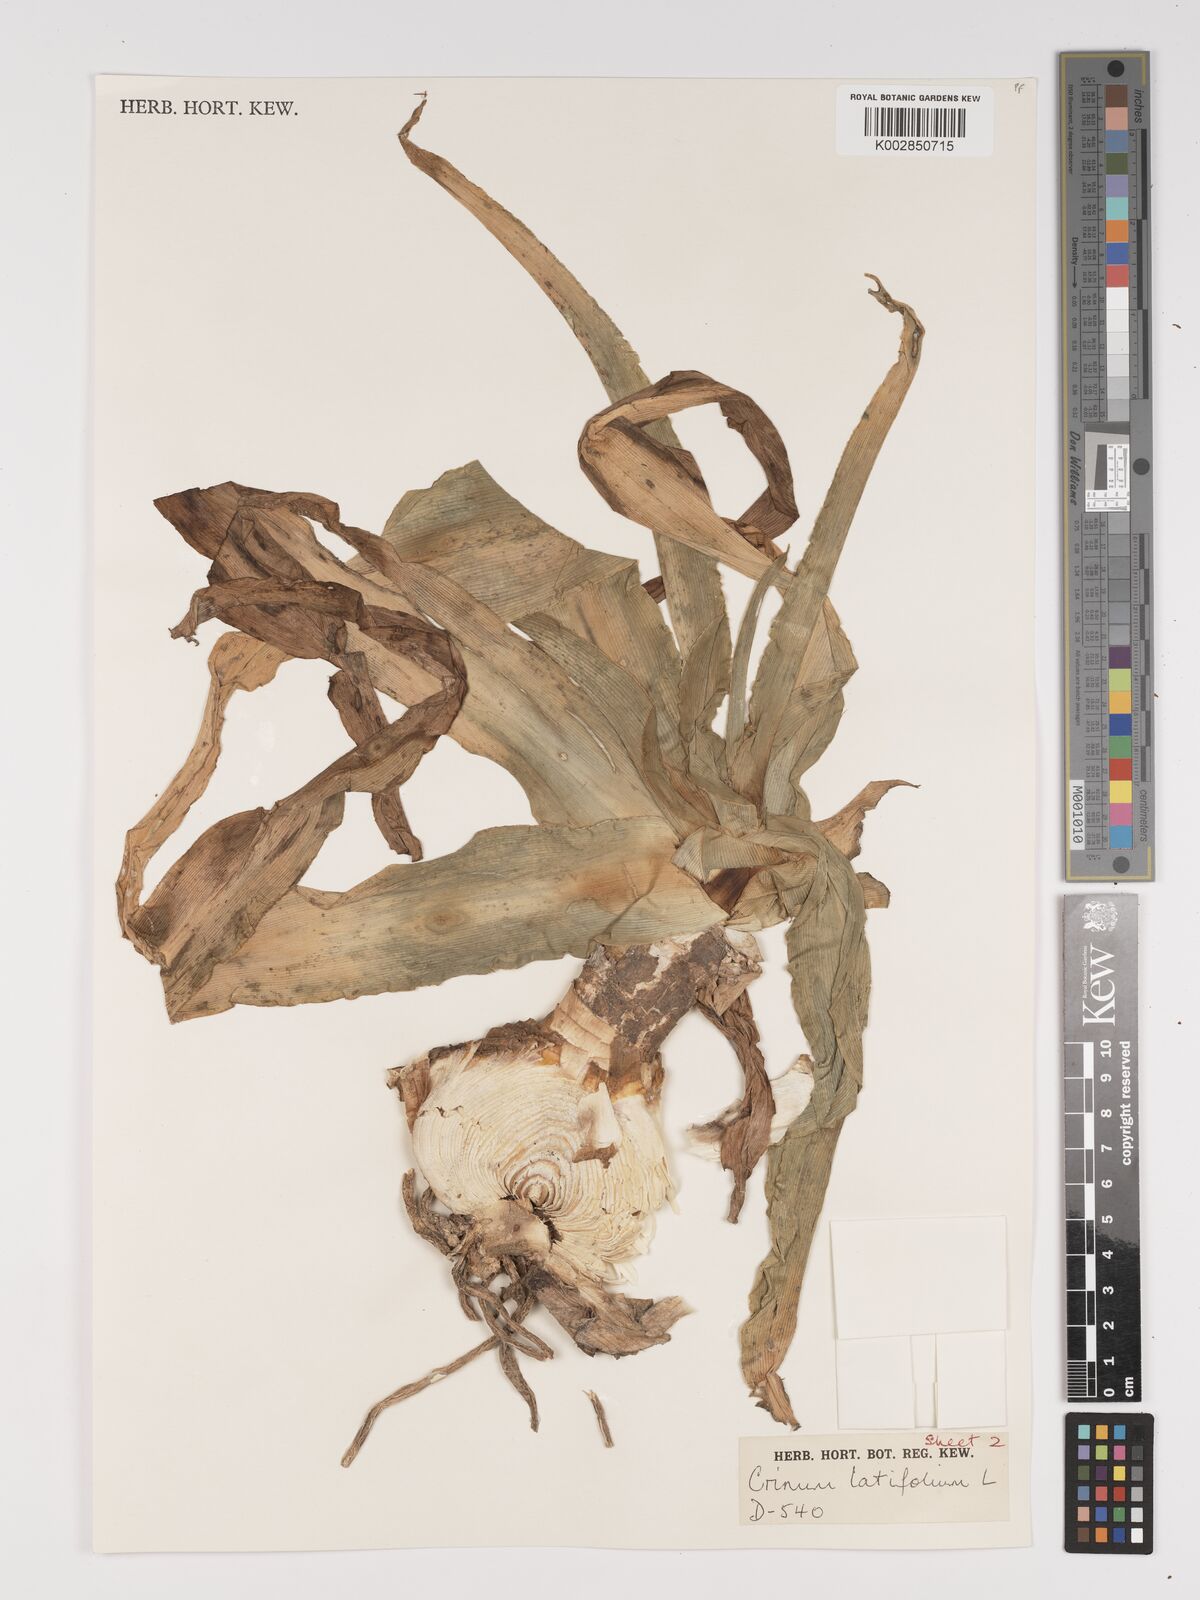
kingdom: Plantae
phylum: Tracheophyta
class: Liliopsida
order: Asparagales
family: Amaryllidaceae
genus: Crinum
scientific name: Crinum latifolium
